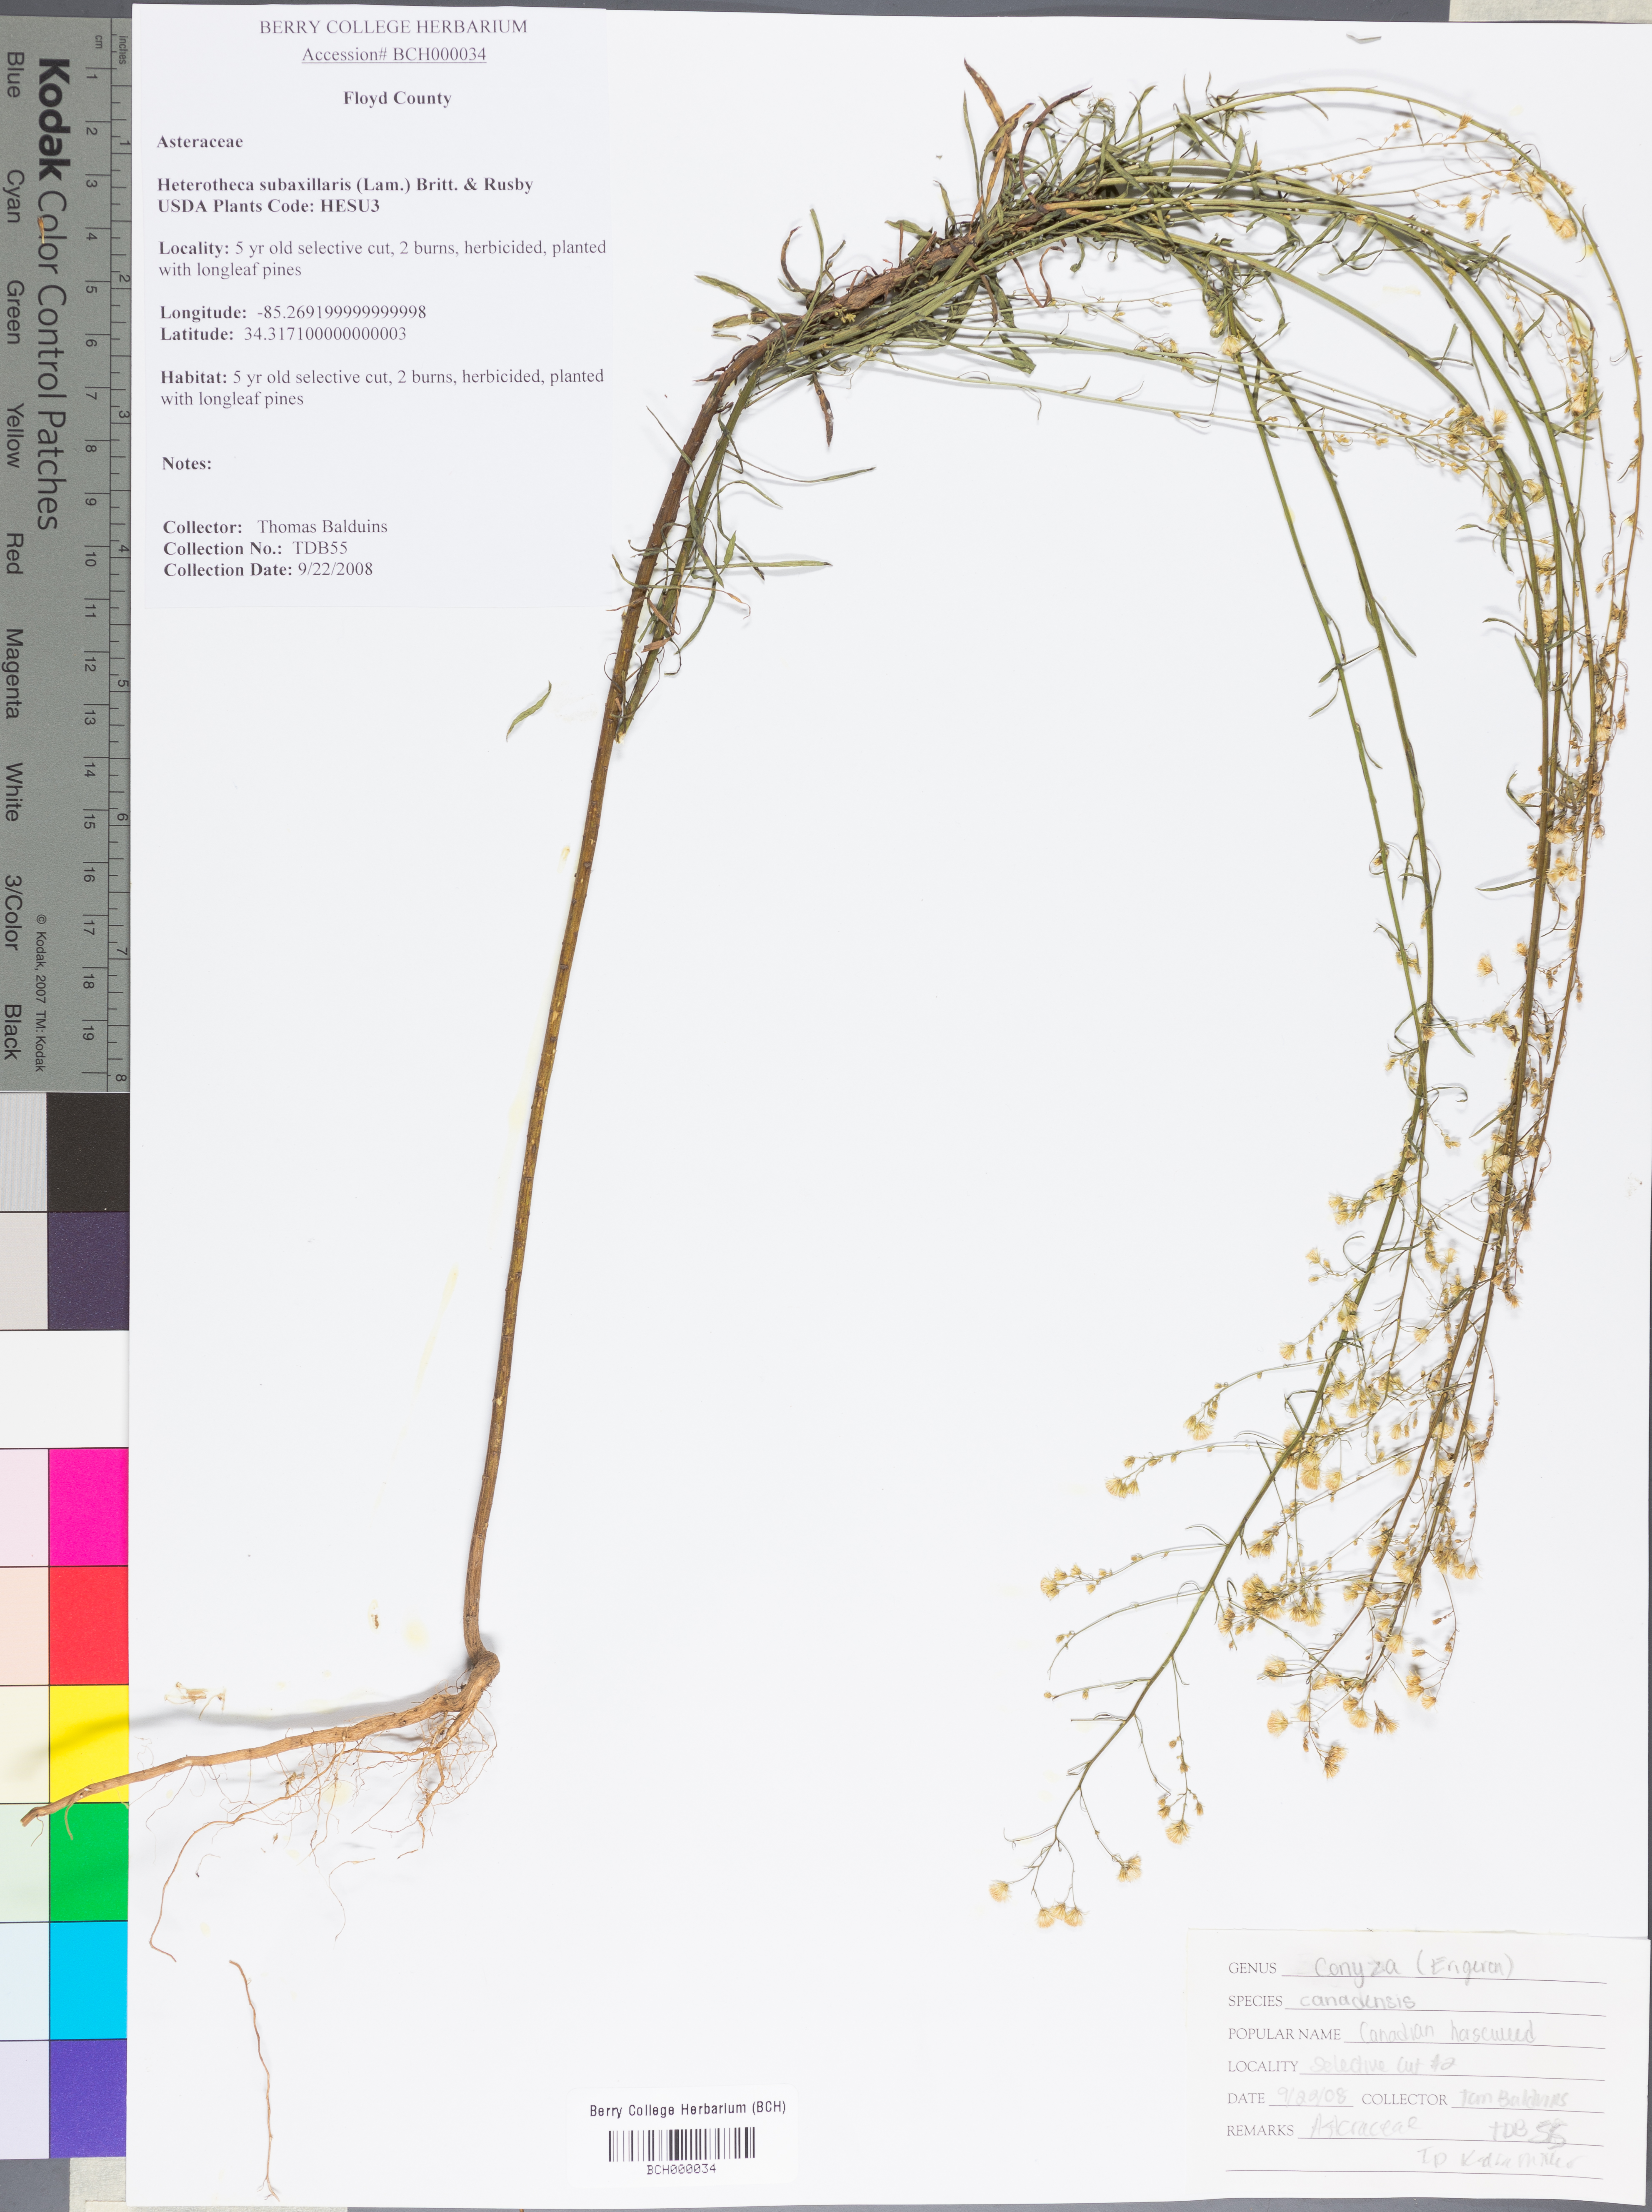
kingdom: Plantae
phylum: Tracheophyta
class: Magnoliopsida
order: Asterales
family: Asteraceae
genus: Heterotheca
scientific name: Heterotheca subaxillaris
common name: Camphorweed
